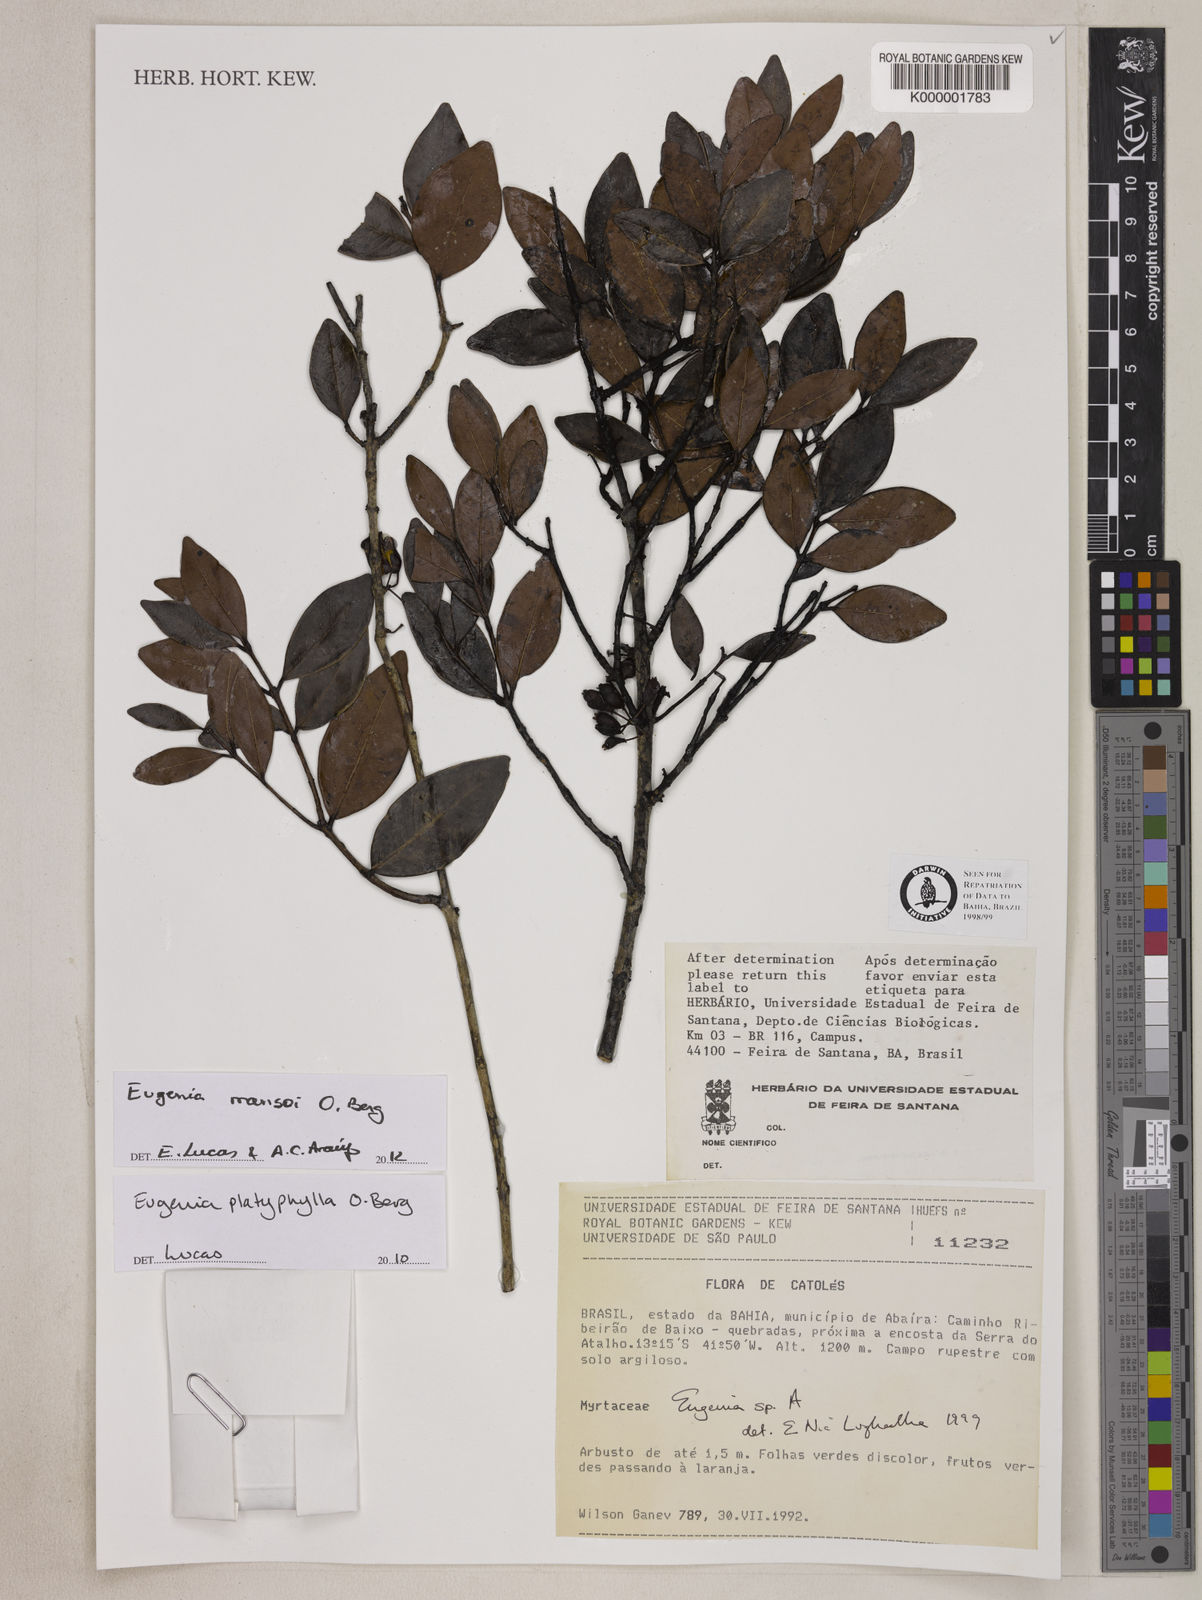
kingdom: Plantae
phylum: Tracheophyta
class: Magnoliopsida
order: Myrtales
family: Myrtaceae
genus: Eugenia
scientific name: Eugenia
